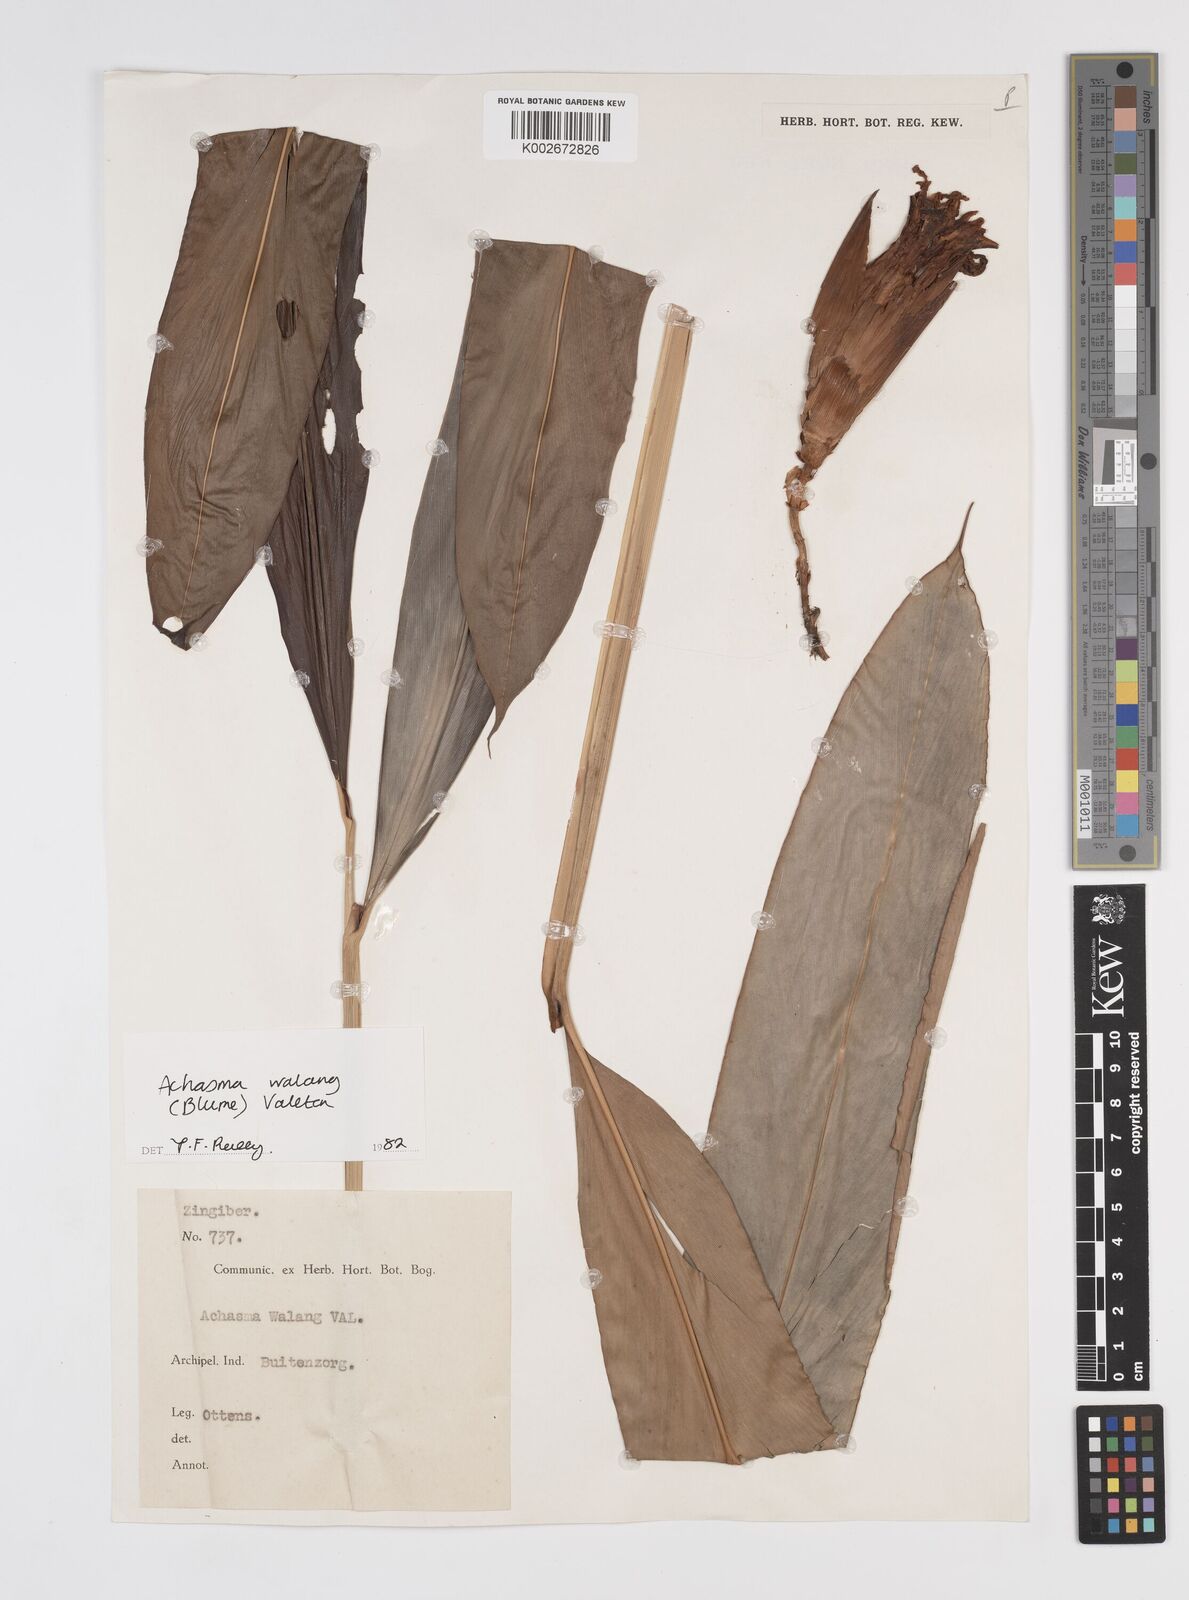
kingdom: Plantae
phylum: Tracheophyta
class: Liliopsida
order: Zingiberales
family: Zingiberaceae
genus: Etlingera
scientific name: Etlingera walang
